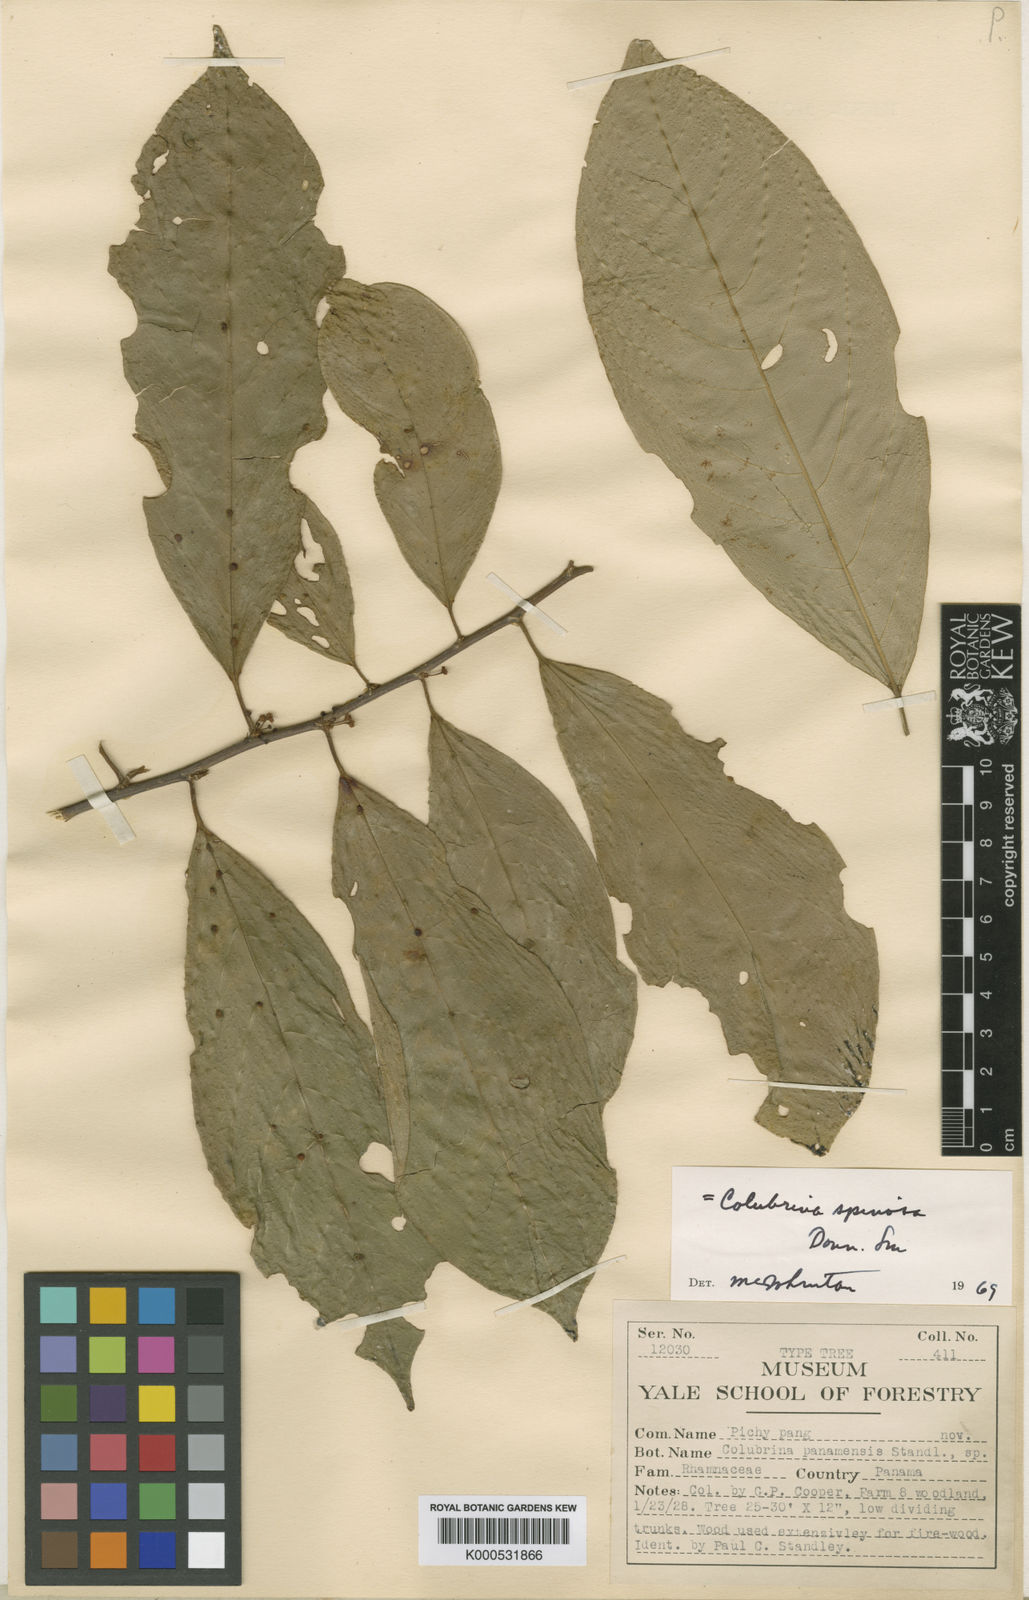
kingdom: Plantae
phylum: Tracheophyta
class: Magnoliopsida
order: Rosales
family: Rhamnaceae
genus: Colubrina
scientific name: Colubrina spinosa
